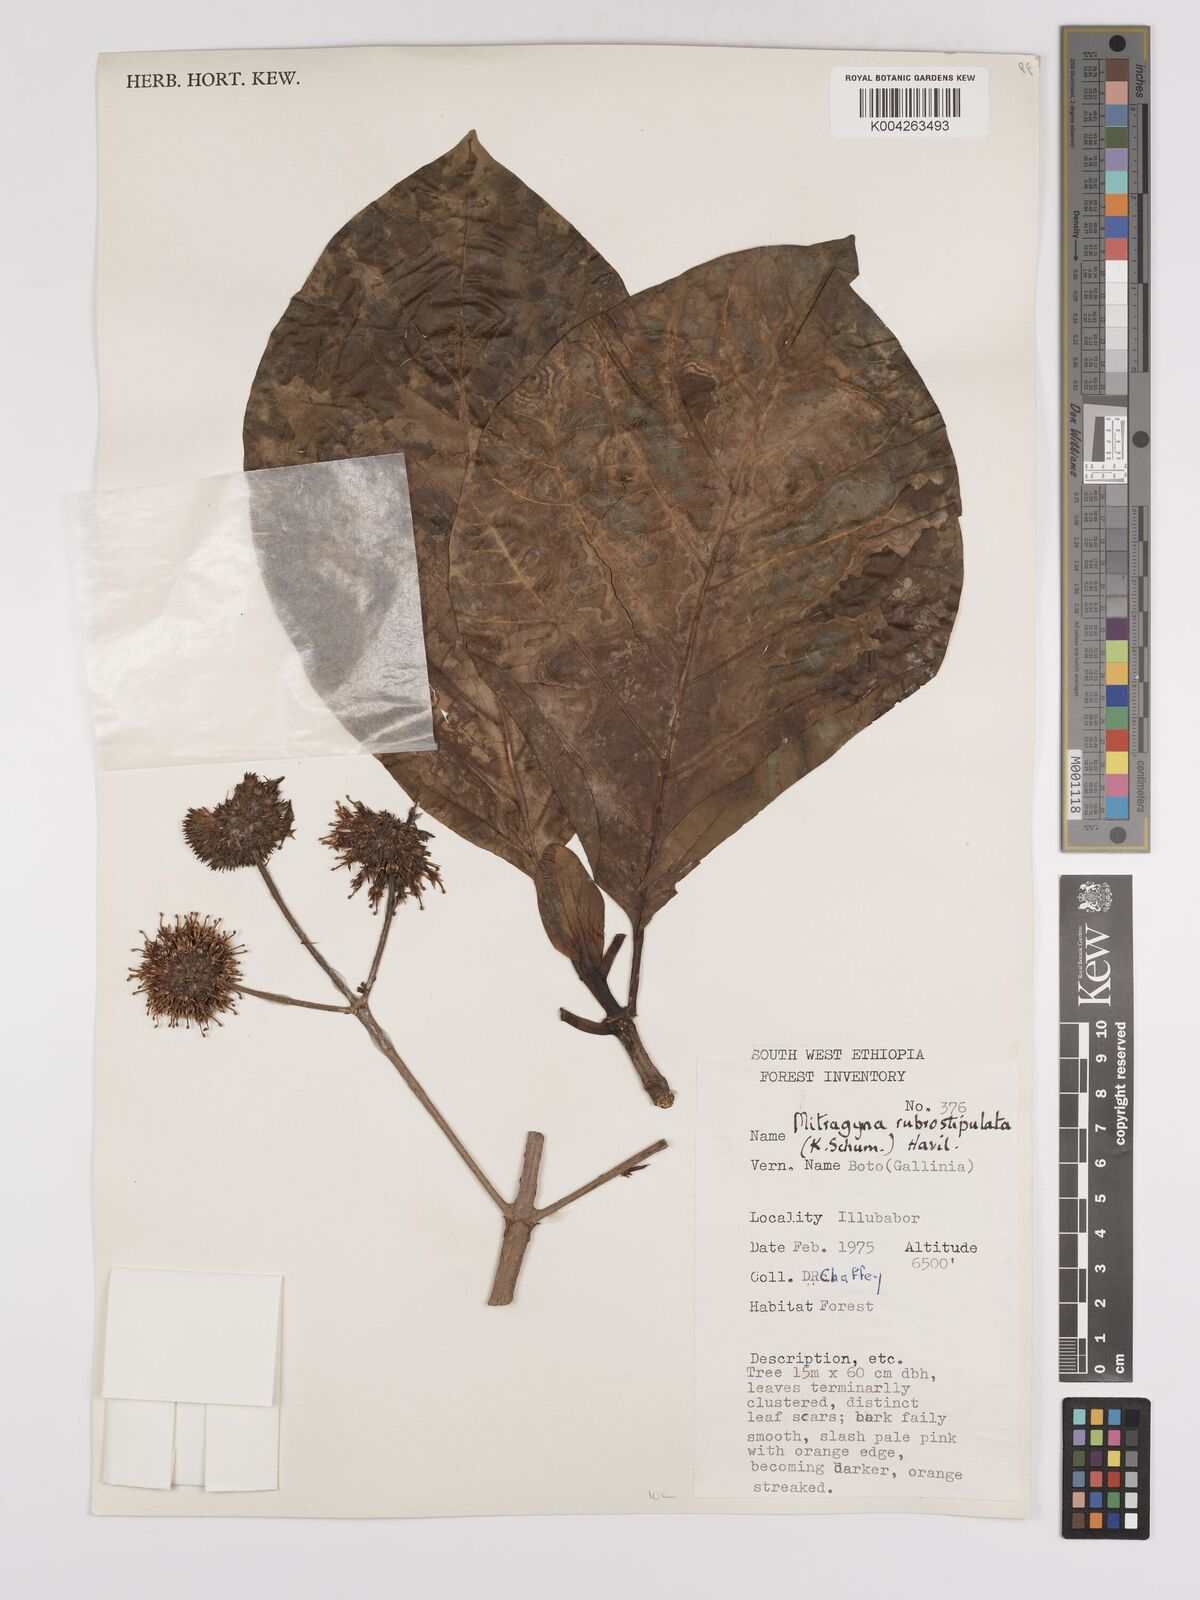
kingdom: Plantae
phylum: Tracheophyta
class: Magnoliopsida
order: Gentianales
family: Rubiaceae
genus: Mitragyna
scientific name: Mitragyna rubrostipulata
